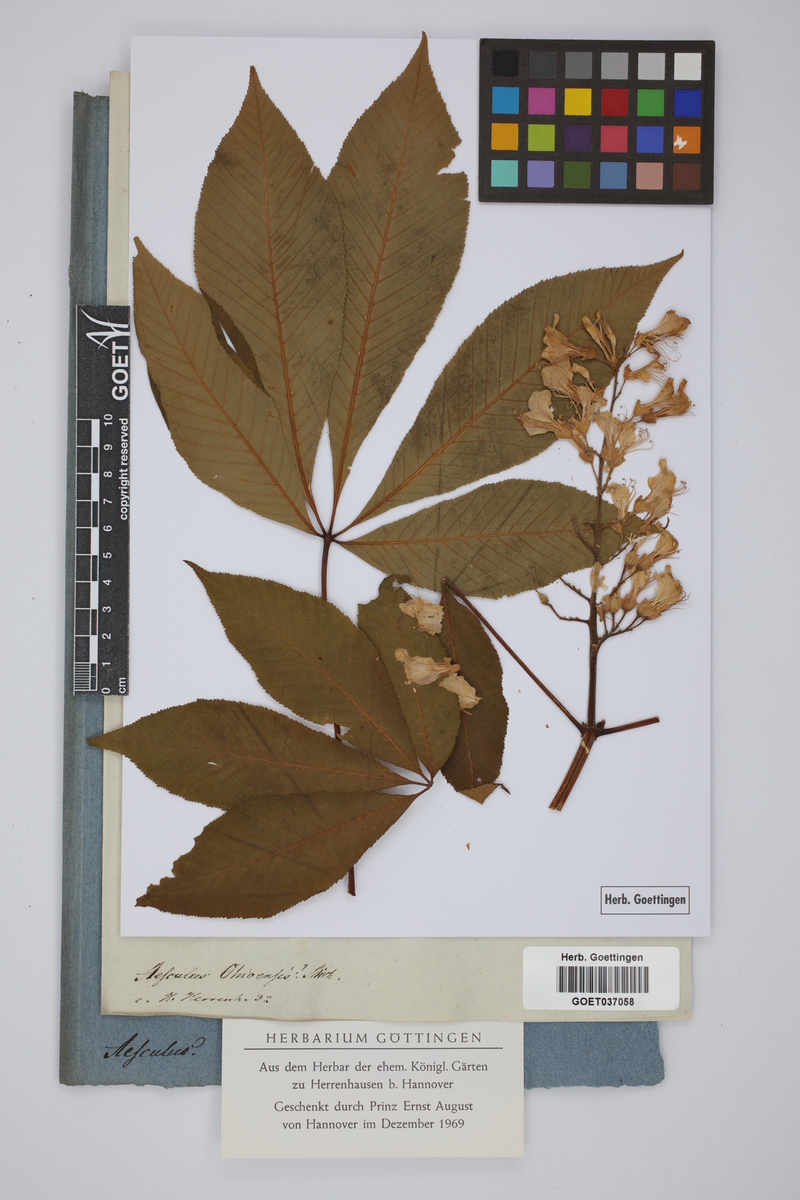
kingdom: Plantae
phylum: Tracheophyta
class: Magnoliopsida
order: Sapindales
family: Sapindaceae
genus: Aesculus
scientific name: Aesculus glabra
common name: Ohio buckeye
